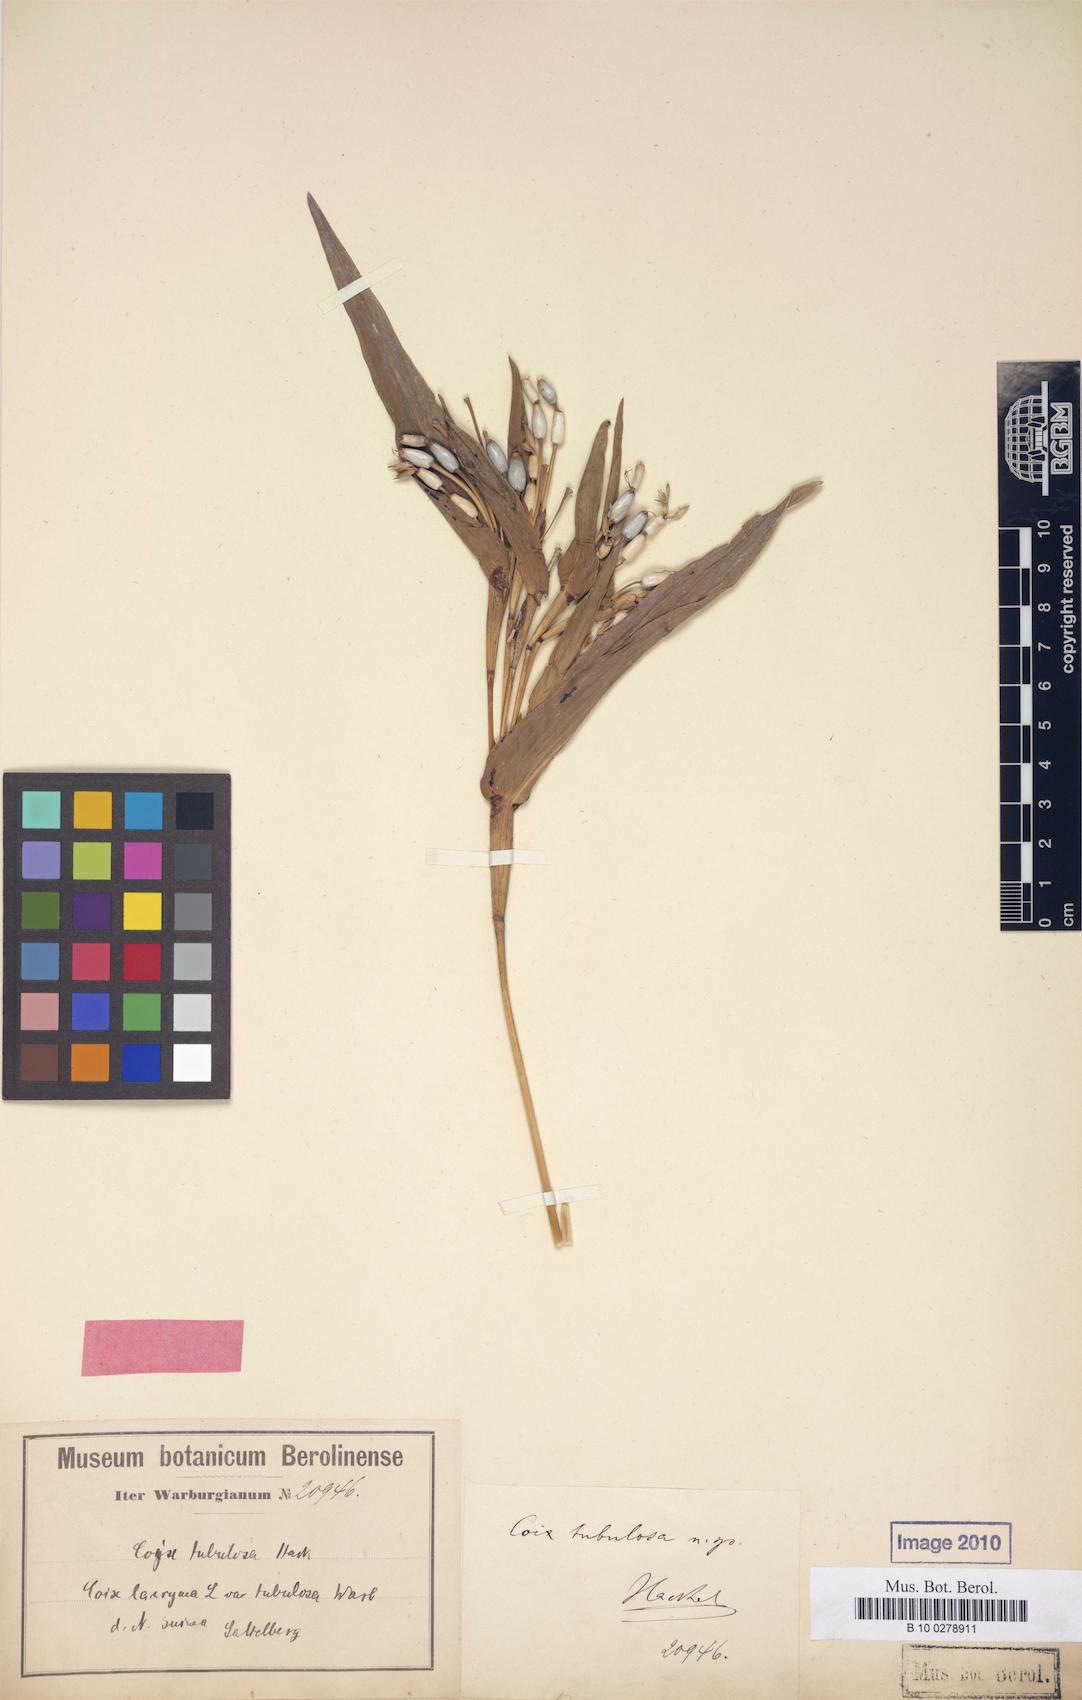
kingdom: Plantae
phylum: Tracheophyta
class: Liliopsida
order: Poales
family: Poaceae
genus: Coix
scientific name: Coix tubulosa
